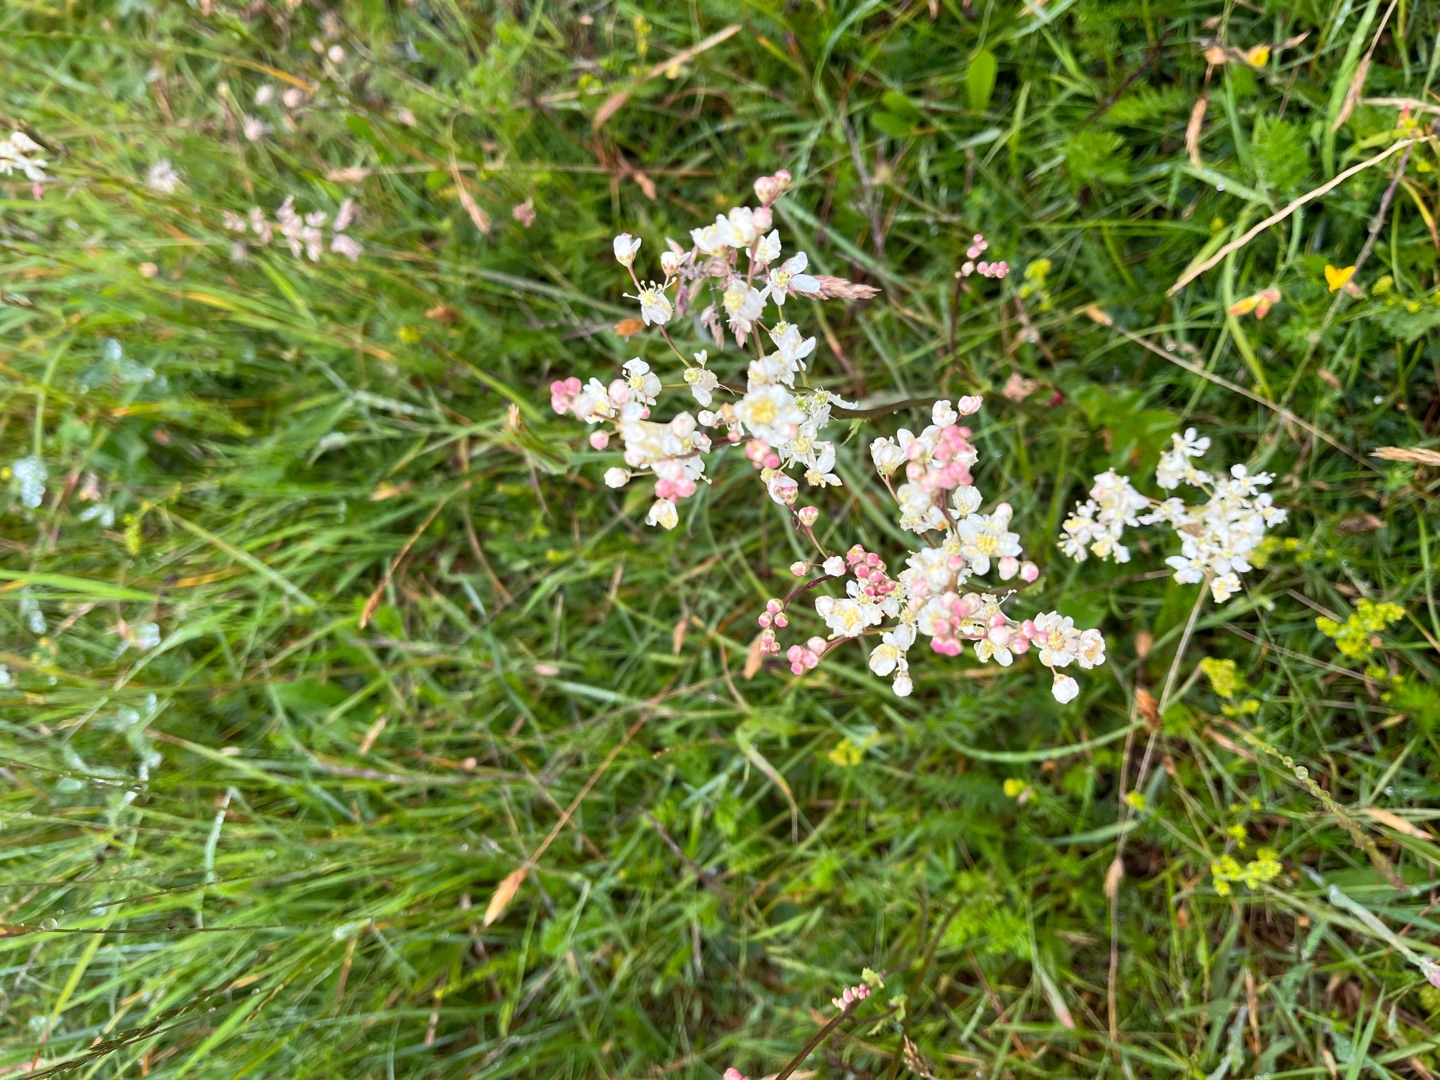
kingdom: Plantae
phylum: Tracheophyta
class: Magnoliopsida
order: Rosales
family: Rosaceae
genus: Filipendula
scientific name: Filipendula vulgaris
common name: Knoldet mjødurt
